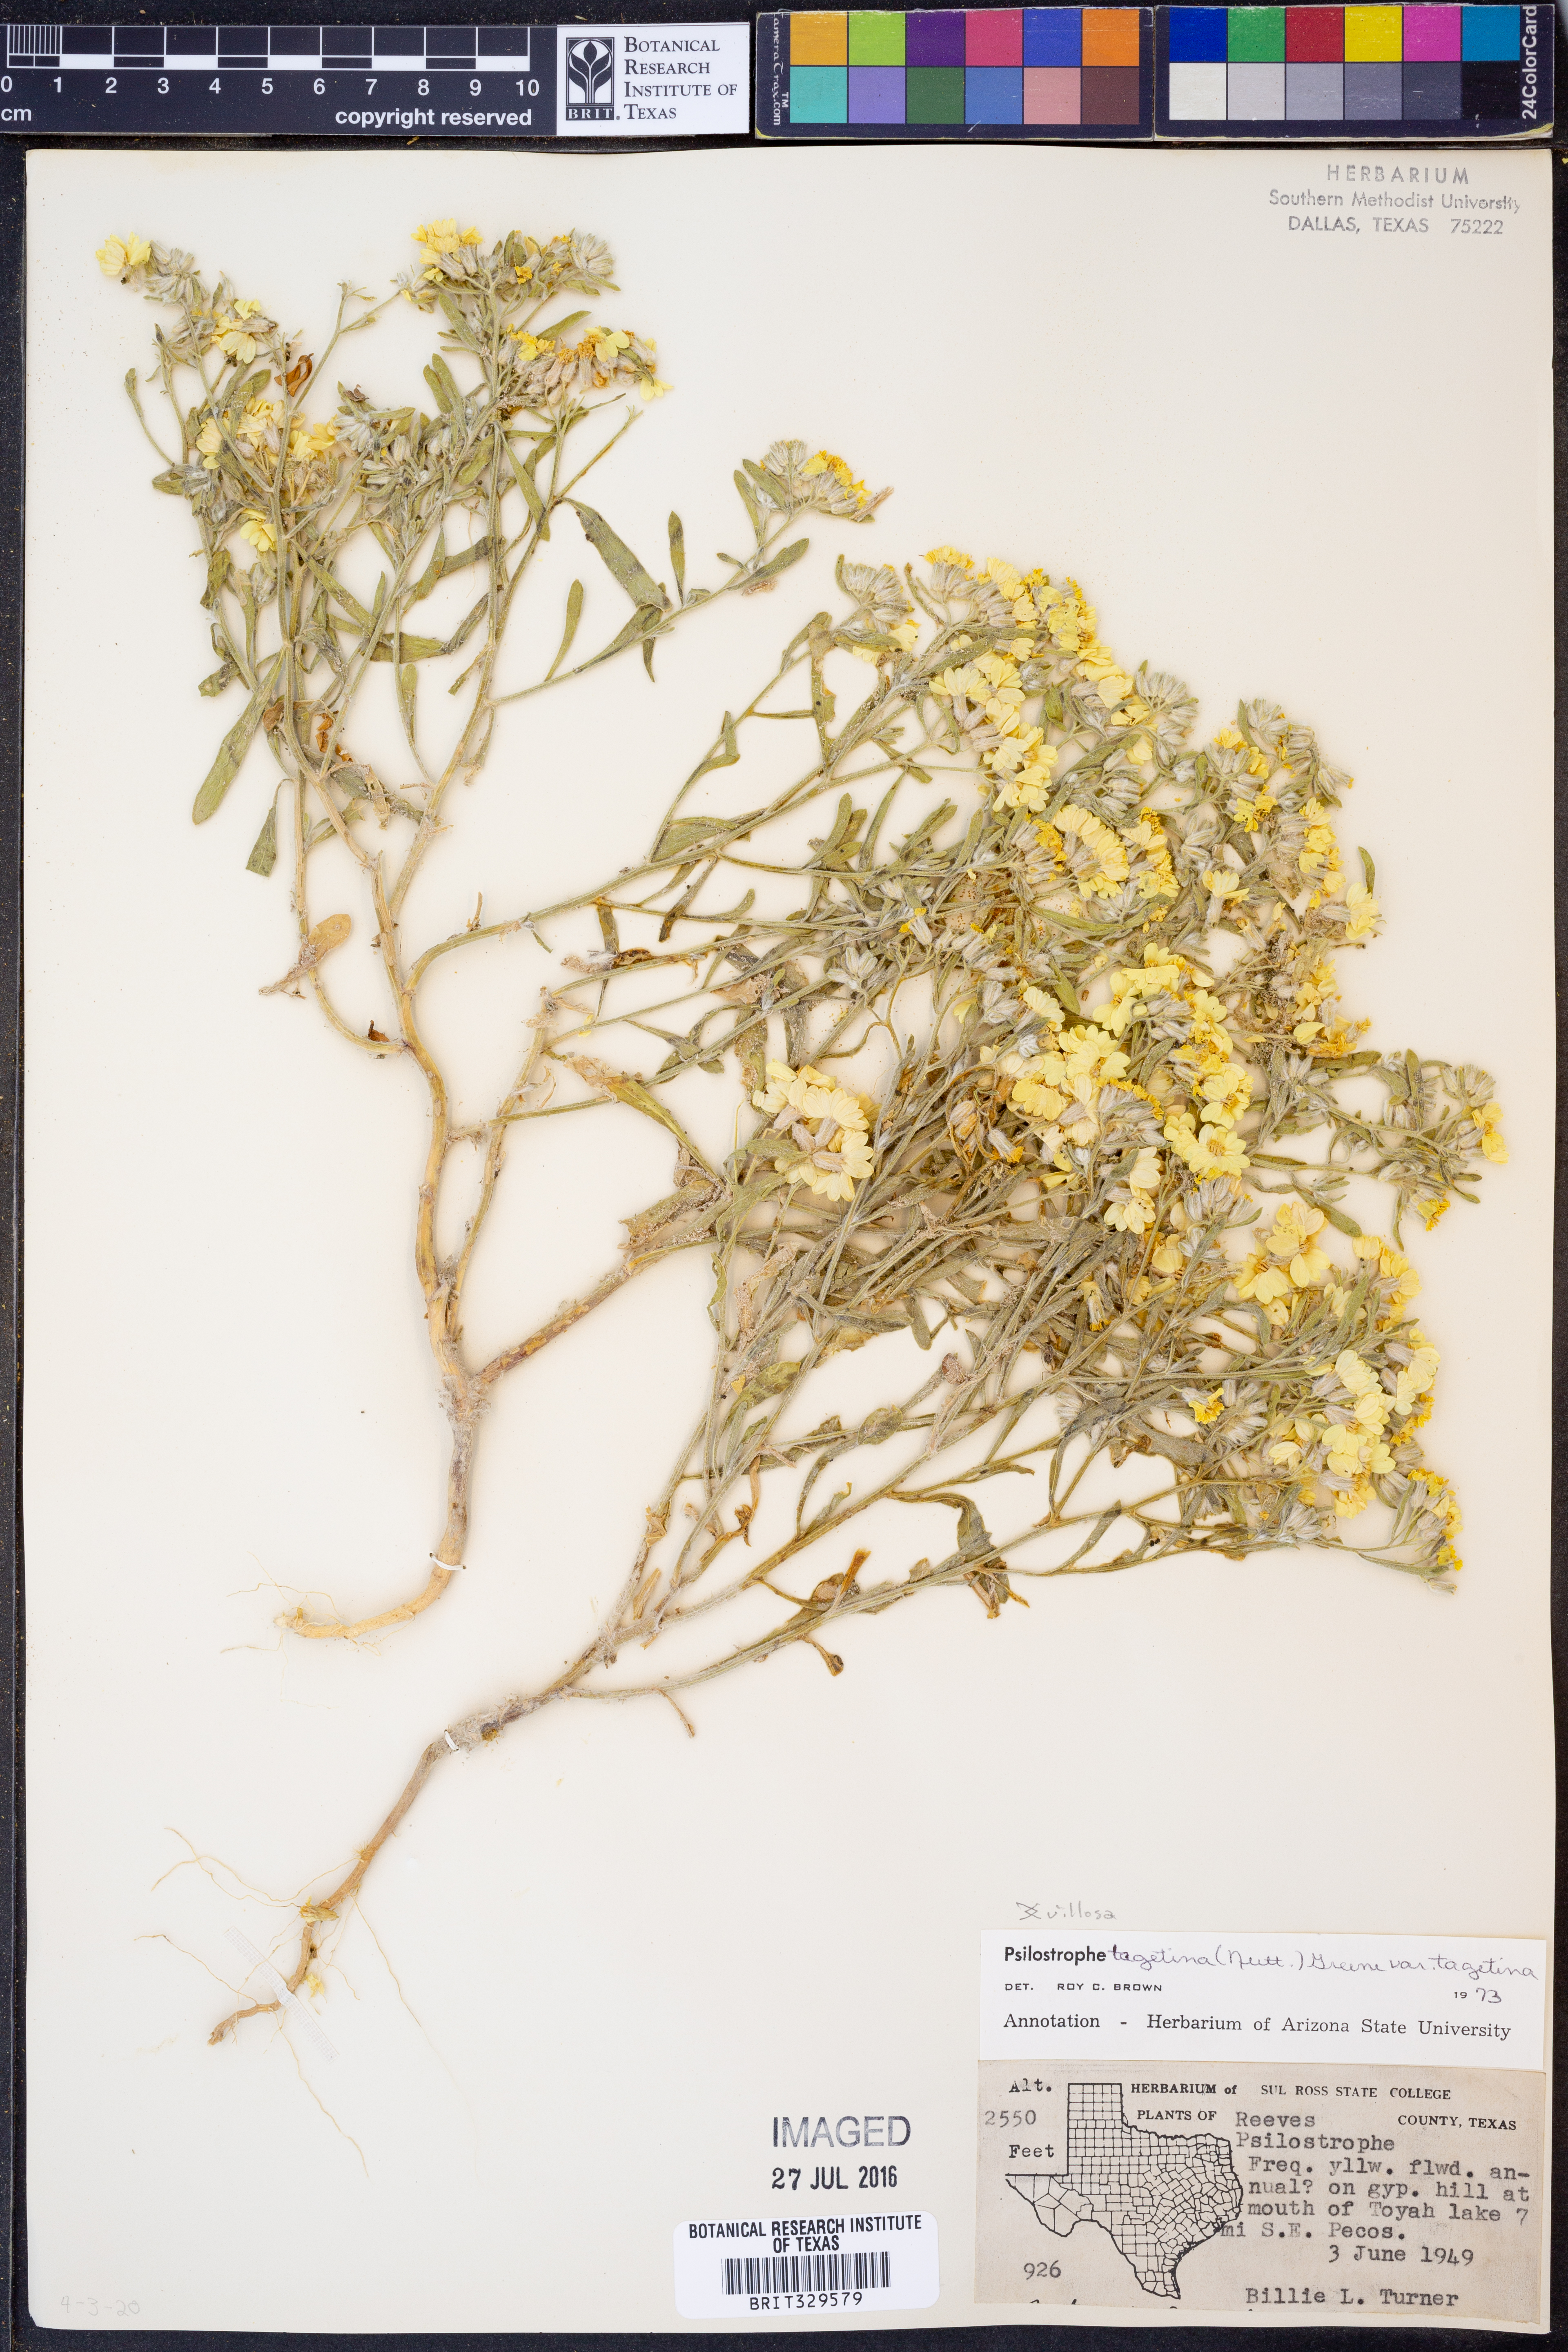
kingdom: Plantae
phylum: Tracheophyta
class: Magnoliopsida
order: Asterales
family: Asteraceae
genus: Psilostrophe
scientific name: Psilostrophe tagetina
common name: Marigold paper-flower
